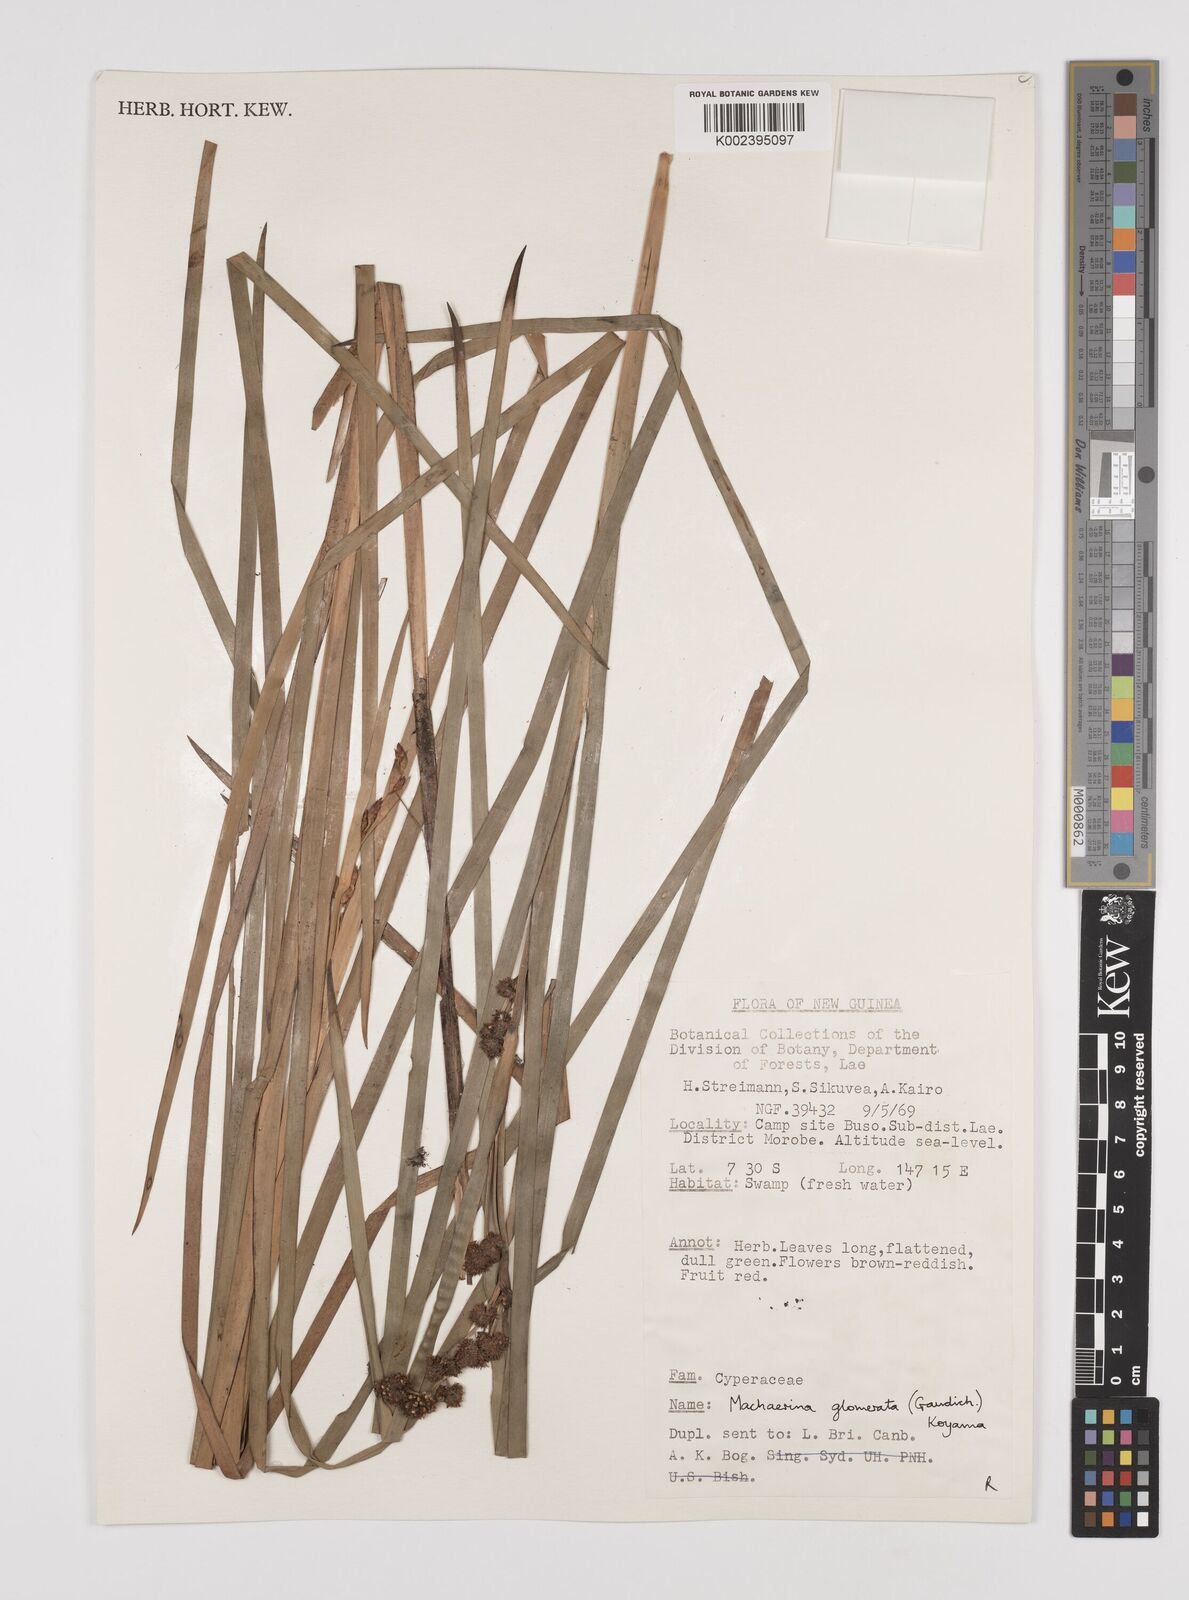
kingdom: Plantae
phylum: Tracheophyta
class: Liliopsida
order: Poales
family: Cyperaceae
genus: Machaerina
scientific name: Machaerina glomerata
